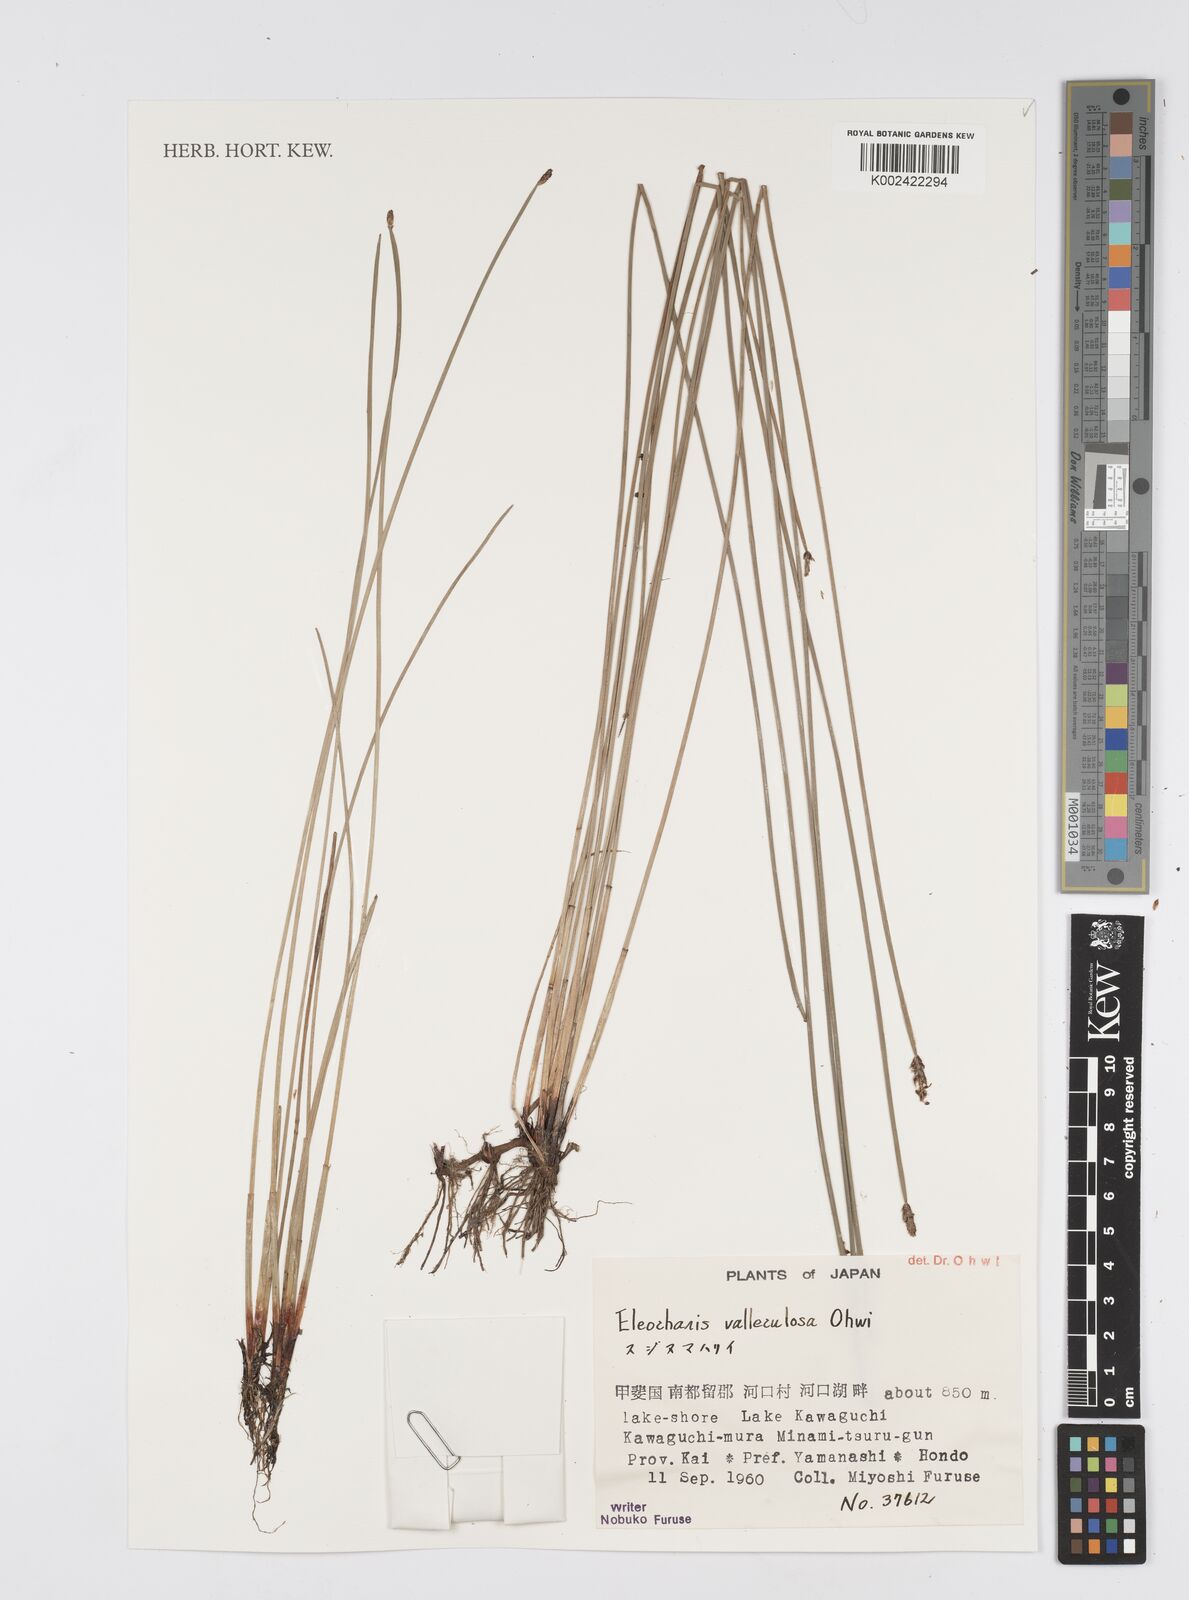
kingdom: Plantae
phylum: Tracheophyta
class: Liliopsida
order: Poales
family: Cyperaceae
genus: Eleocharis
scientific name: Eleocharis valleculosa
